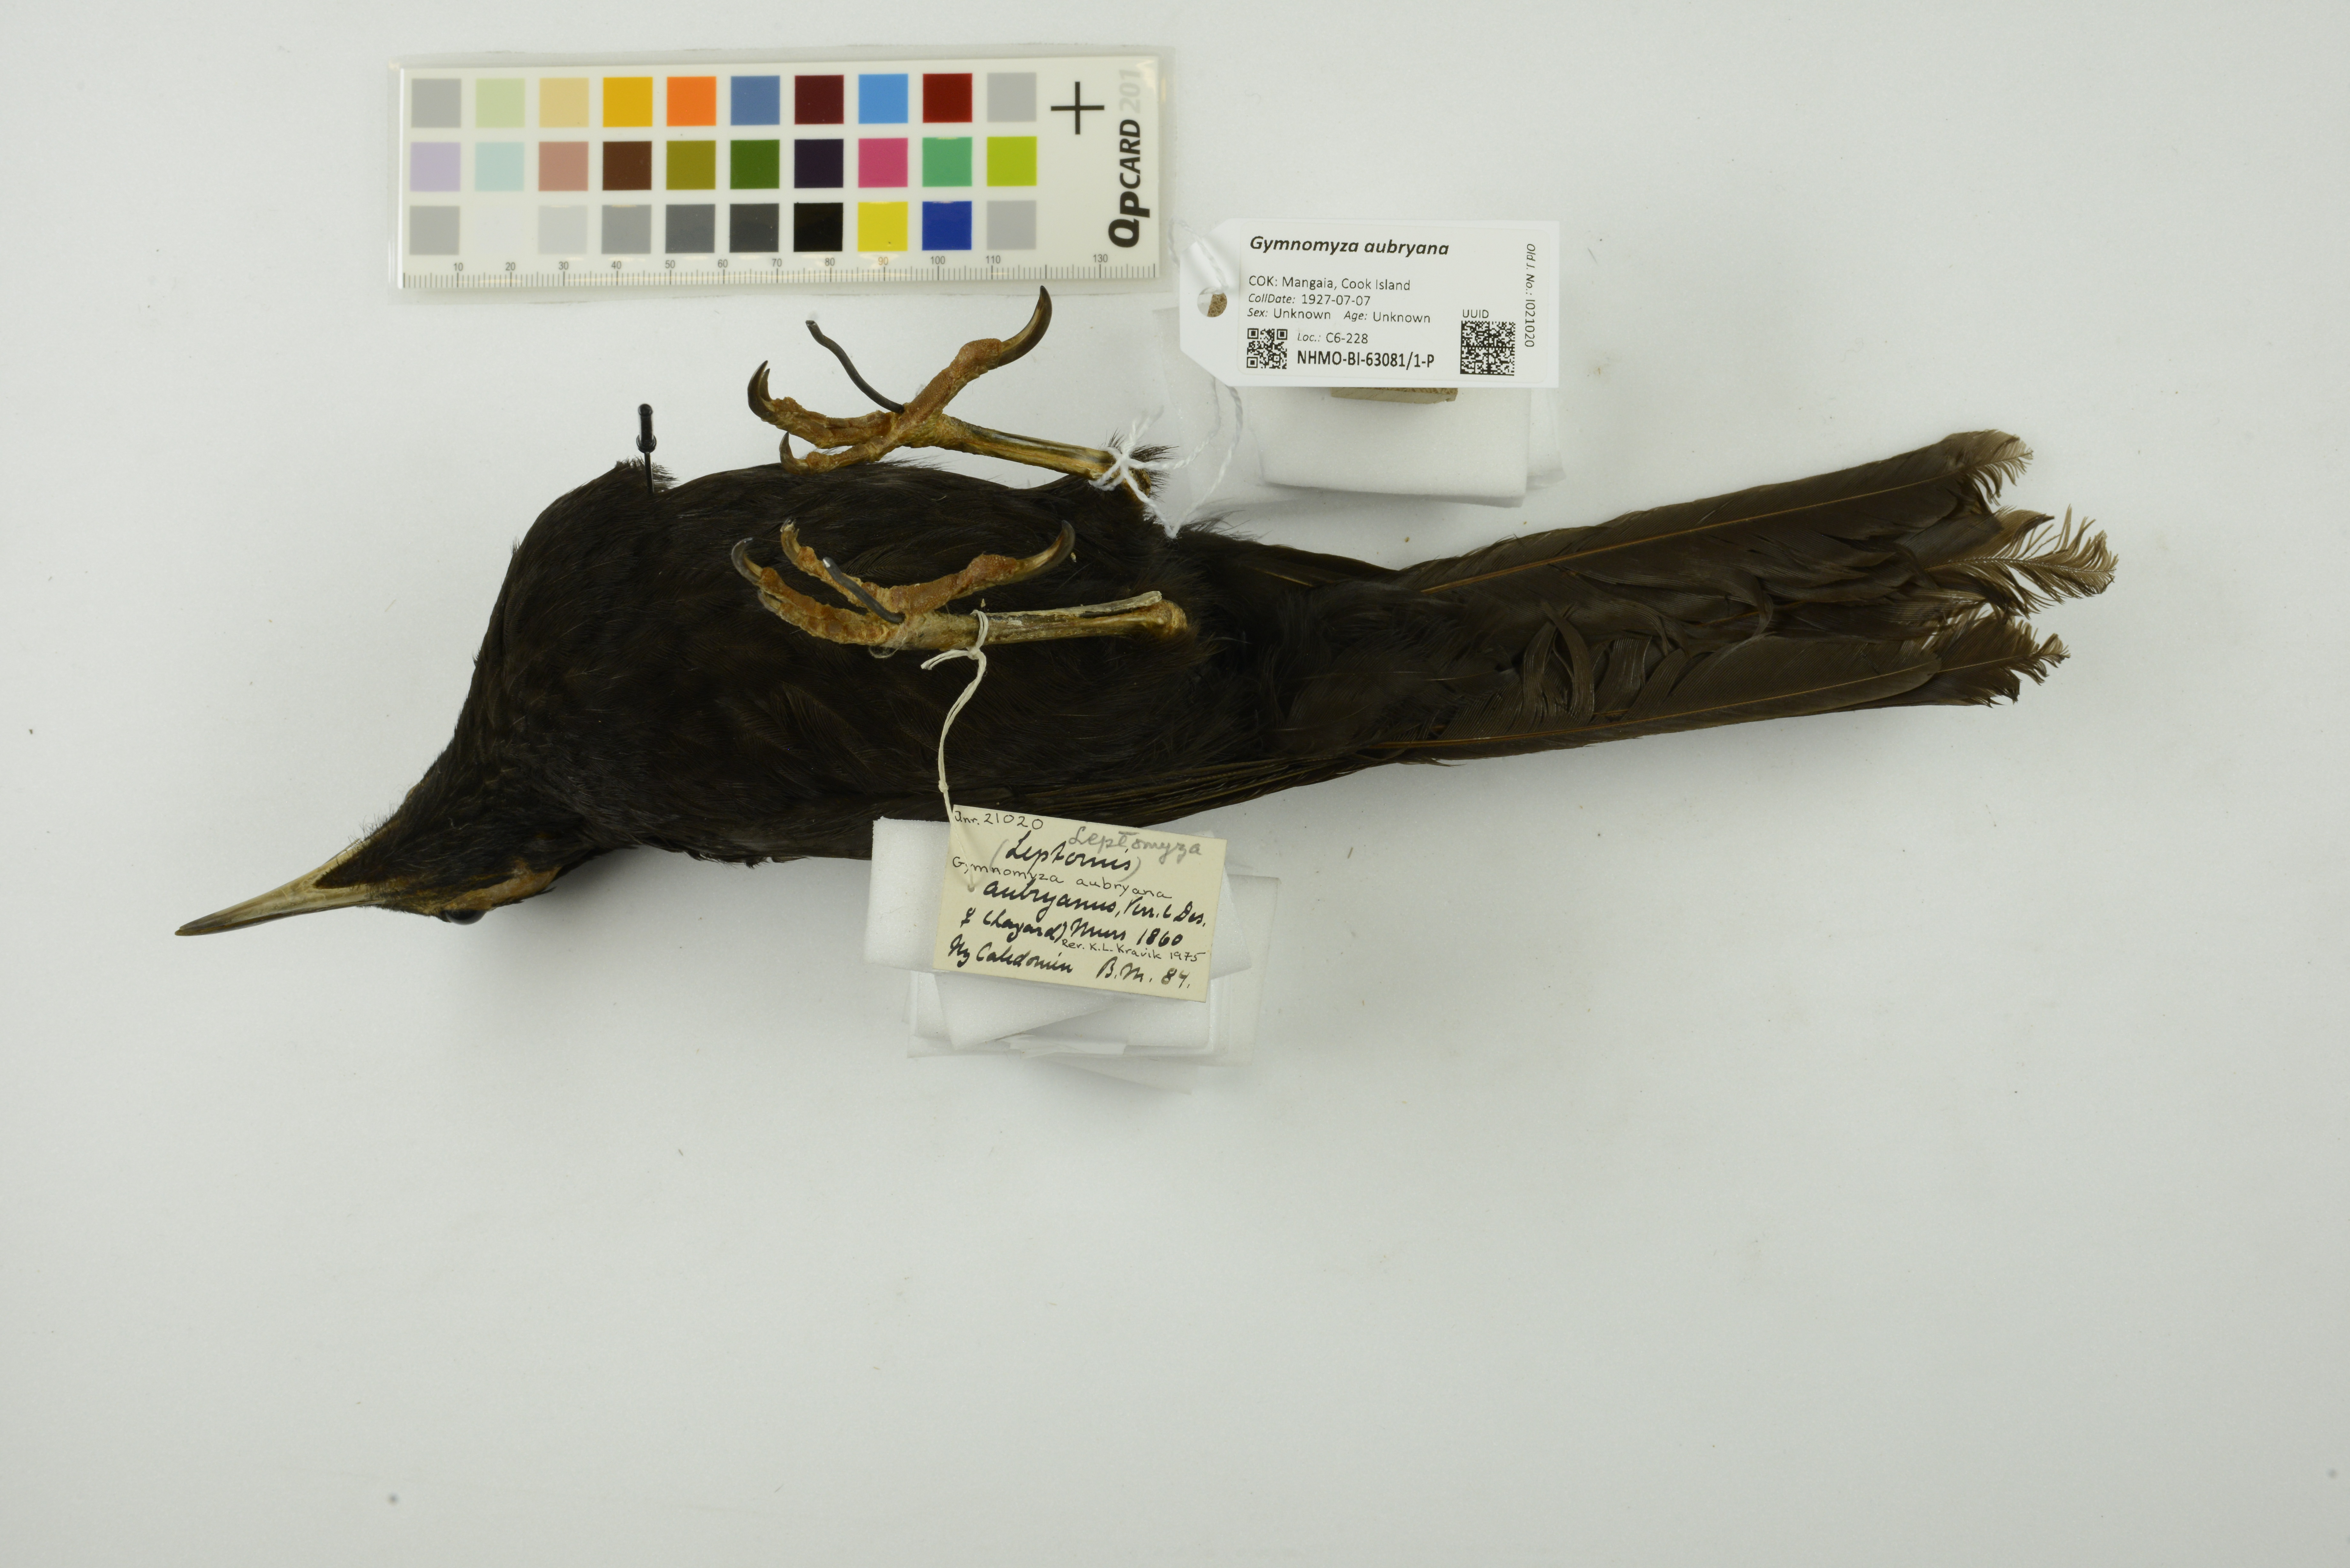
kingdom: Animalia
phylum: Chordata
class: Aves
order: Passeriformes
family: Meliphagidae
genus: Gymnomyza
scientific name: Gymnomyza aubryana
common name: Crow honeyeater
